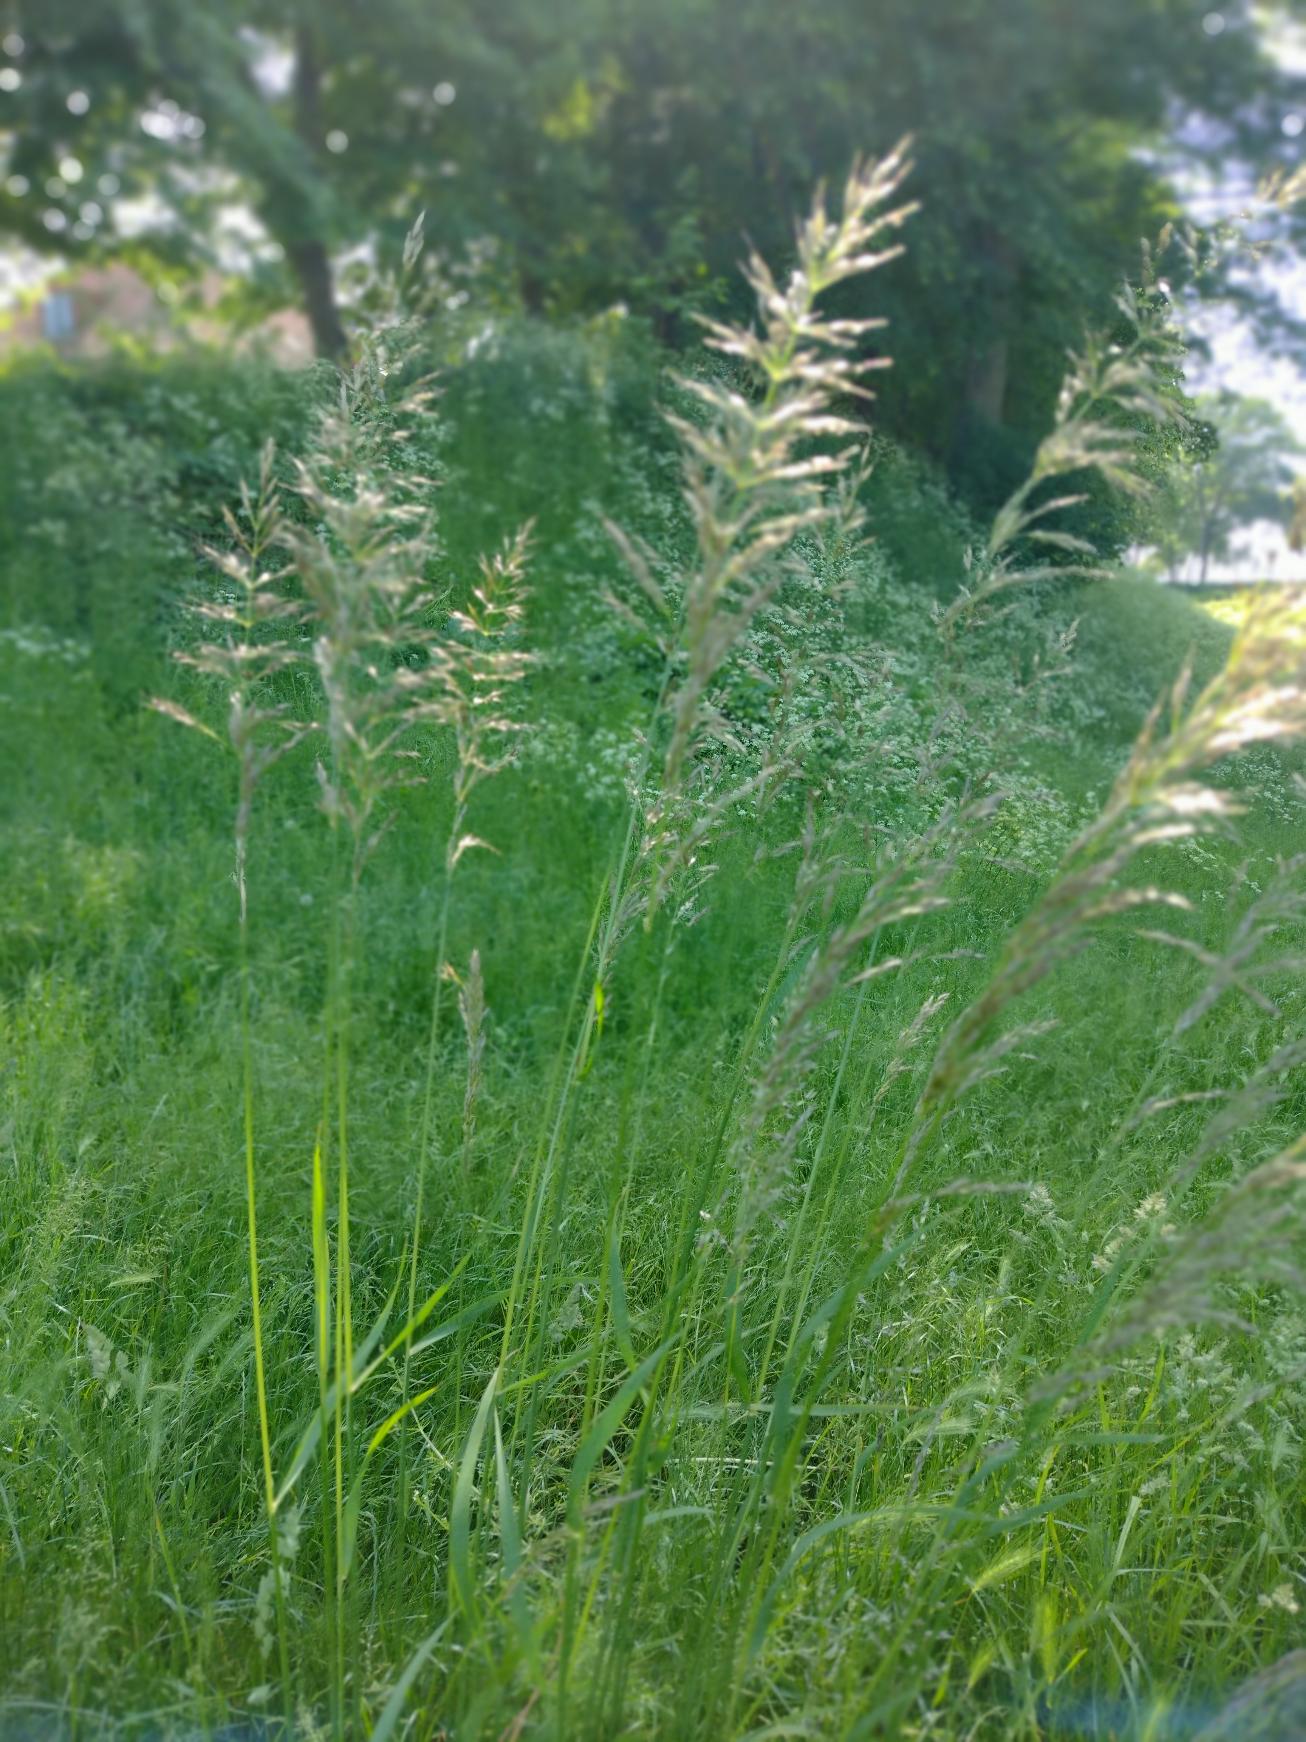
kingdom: Plantae
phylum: Tracheophyta
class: Magnoliopsida
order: Lamiales
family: Plantaginaceae
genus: Veronica
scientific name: Veronica chamaedrys
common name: Tveskægget ærenpris
